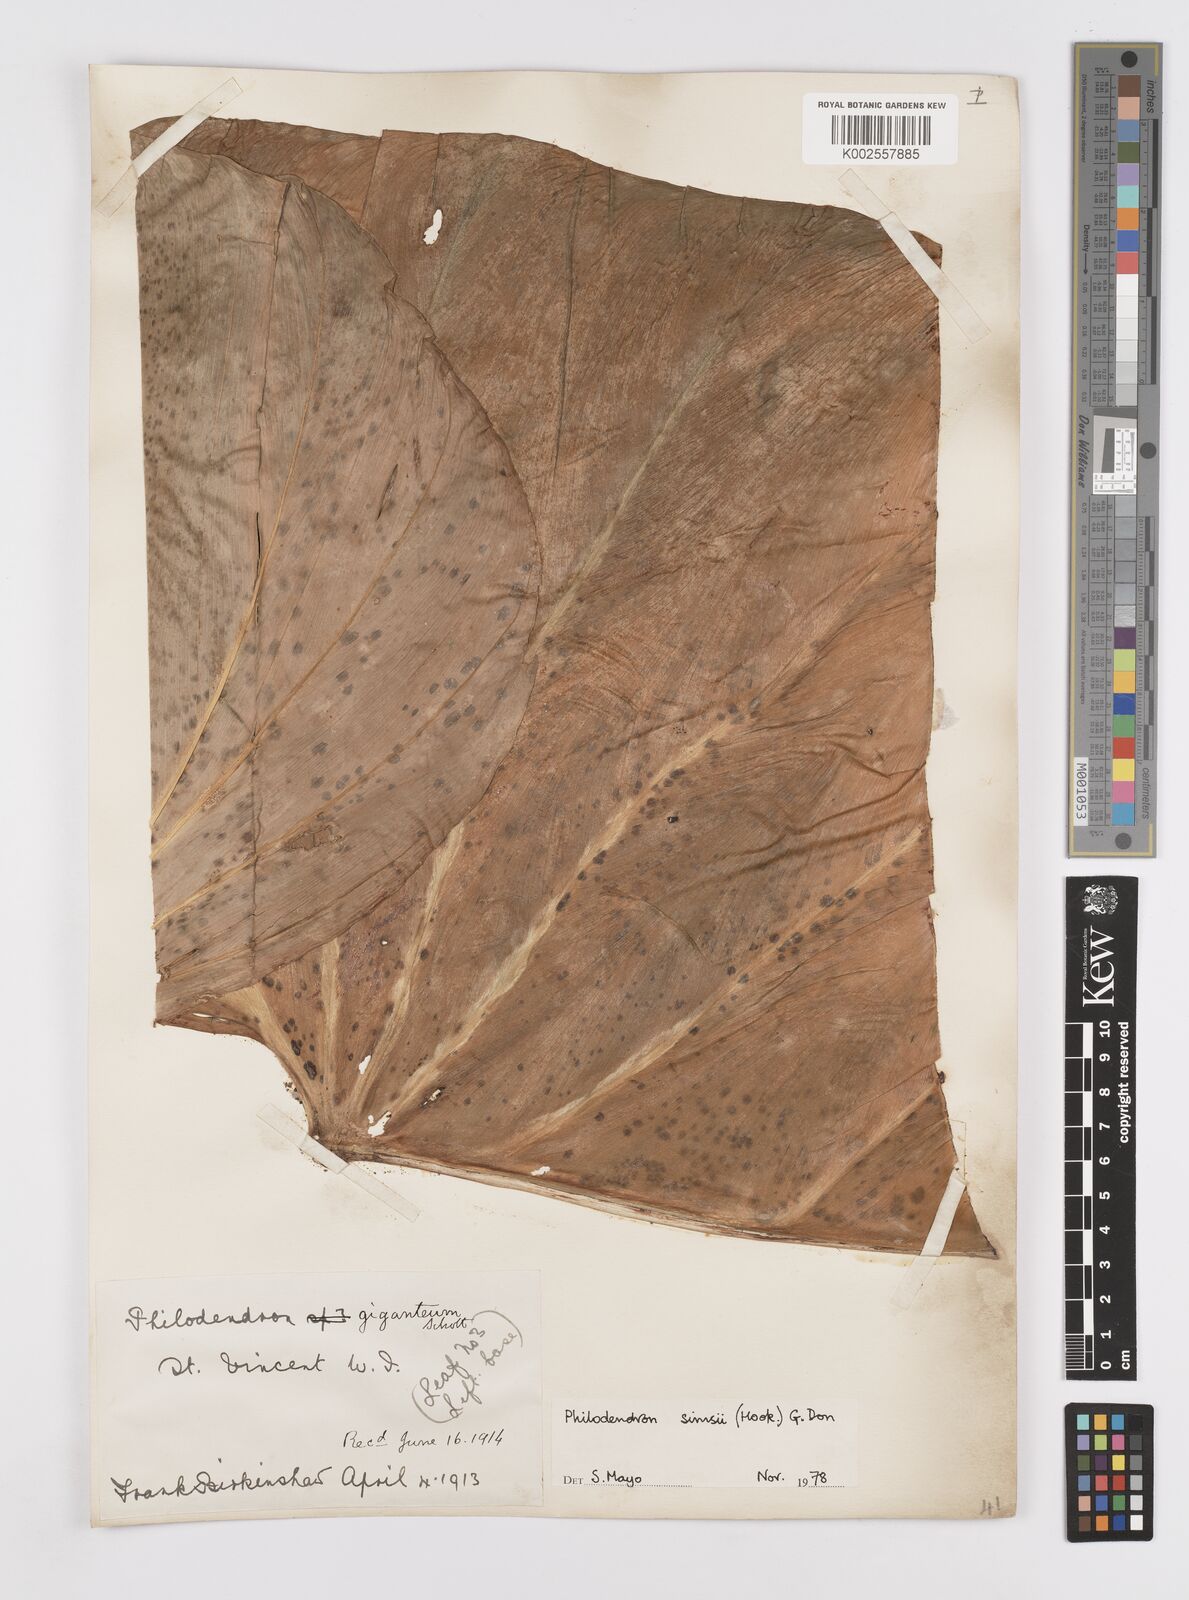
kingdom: Plantae
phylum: Tracheophyta
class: Liliopsida
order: Alismatales
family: Araceae
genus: Philodendron
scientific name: Philodendron
